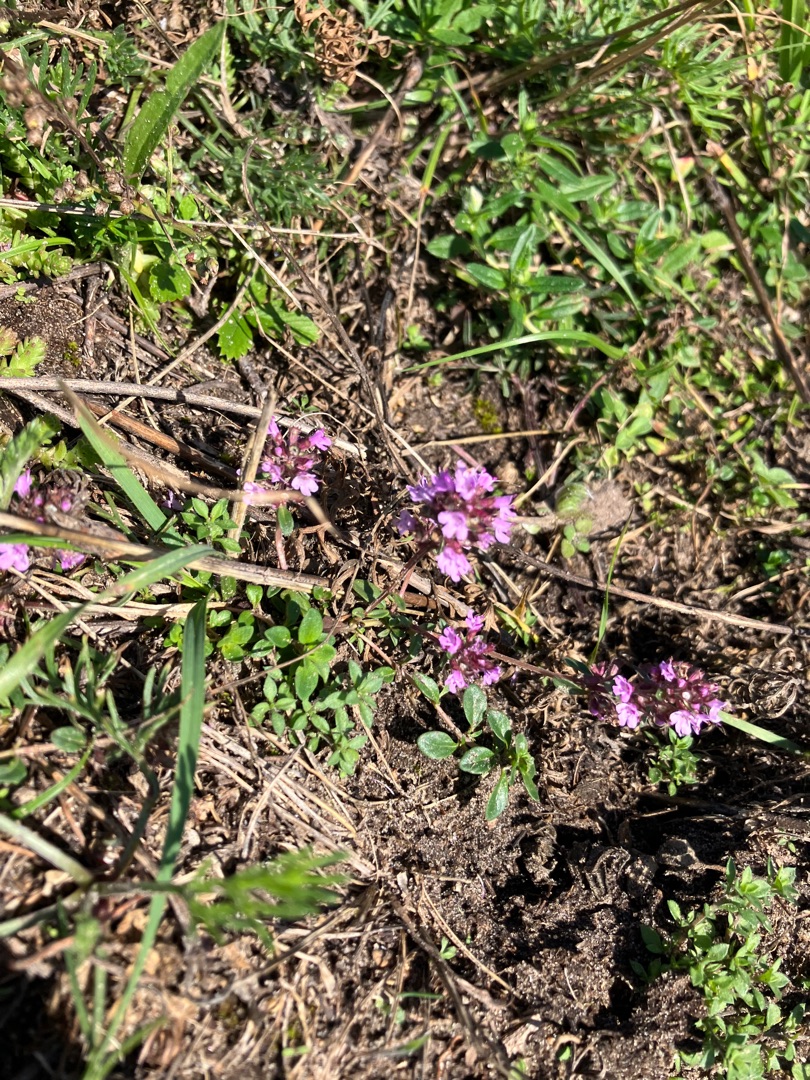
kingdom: Plantae
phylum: Tracheophyta
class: Magnoliopsida
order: Lamiales
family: Lamiaceae
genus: Thymus
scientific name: Thymus pulegioides
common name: Bredbladet timian
